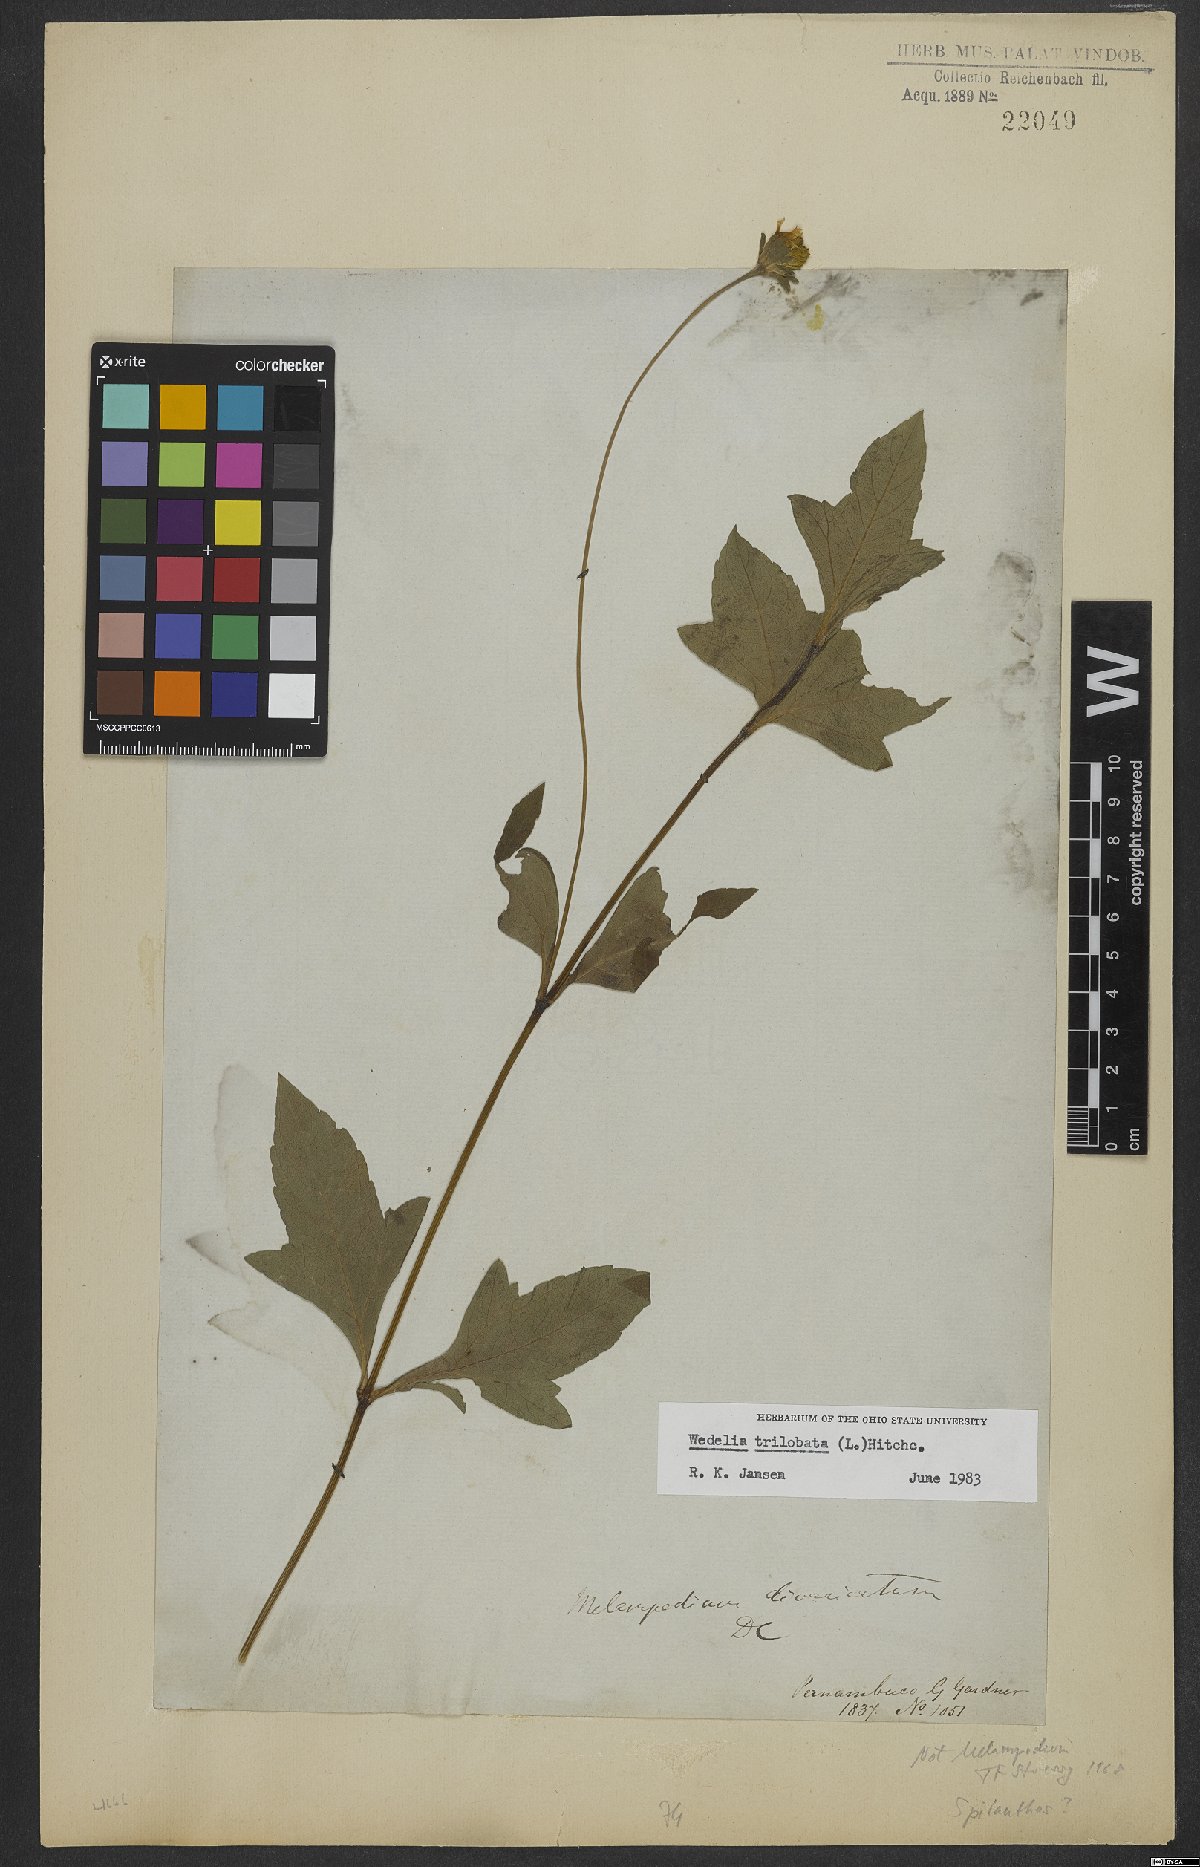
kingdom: Plantae
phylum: Tracheophyta
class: Magnoliopsida
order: Asterales
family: Asteraceae
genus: Sphagneticola
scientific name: Sphagneticola trilobata
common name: Bay biscayne creeping-oxeye
